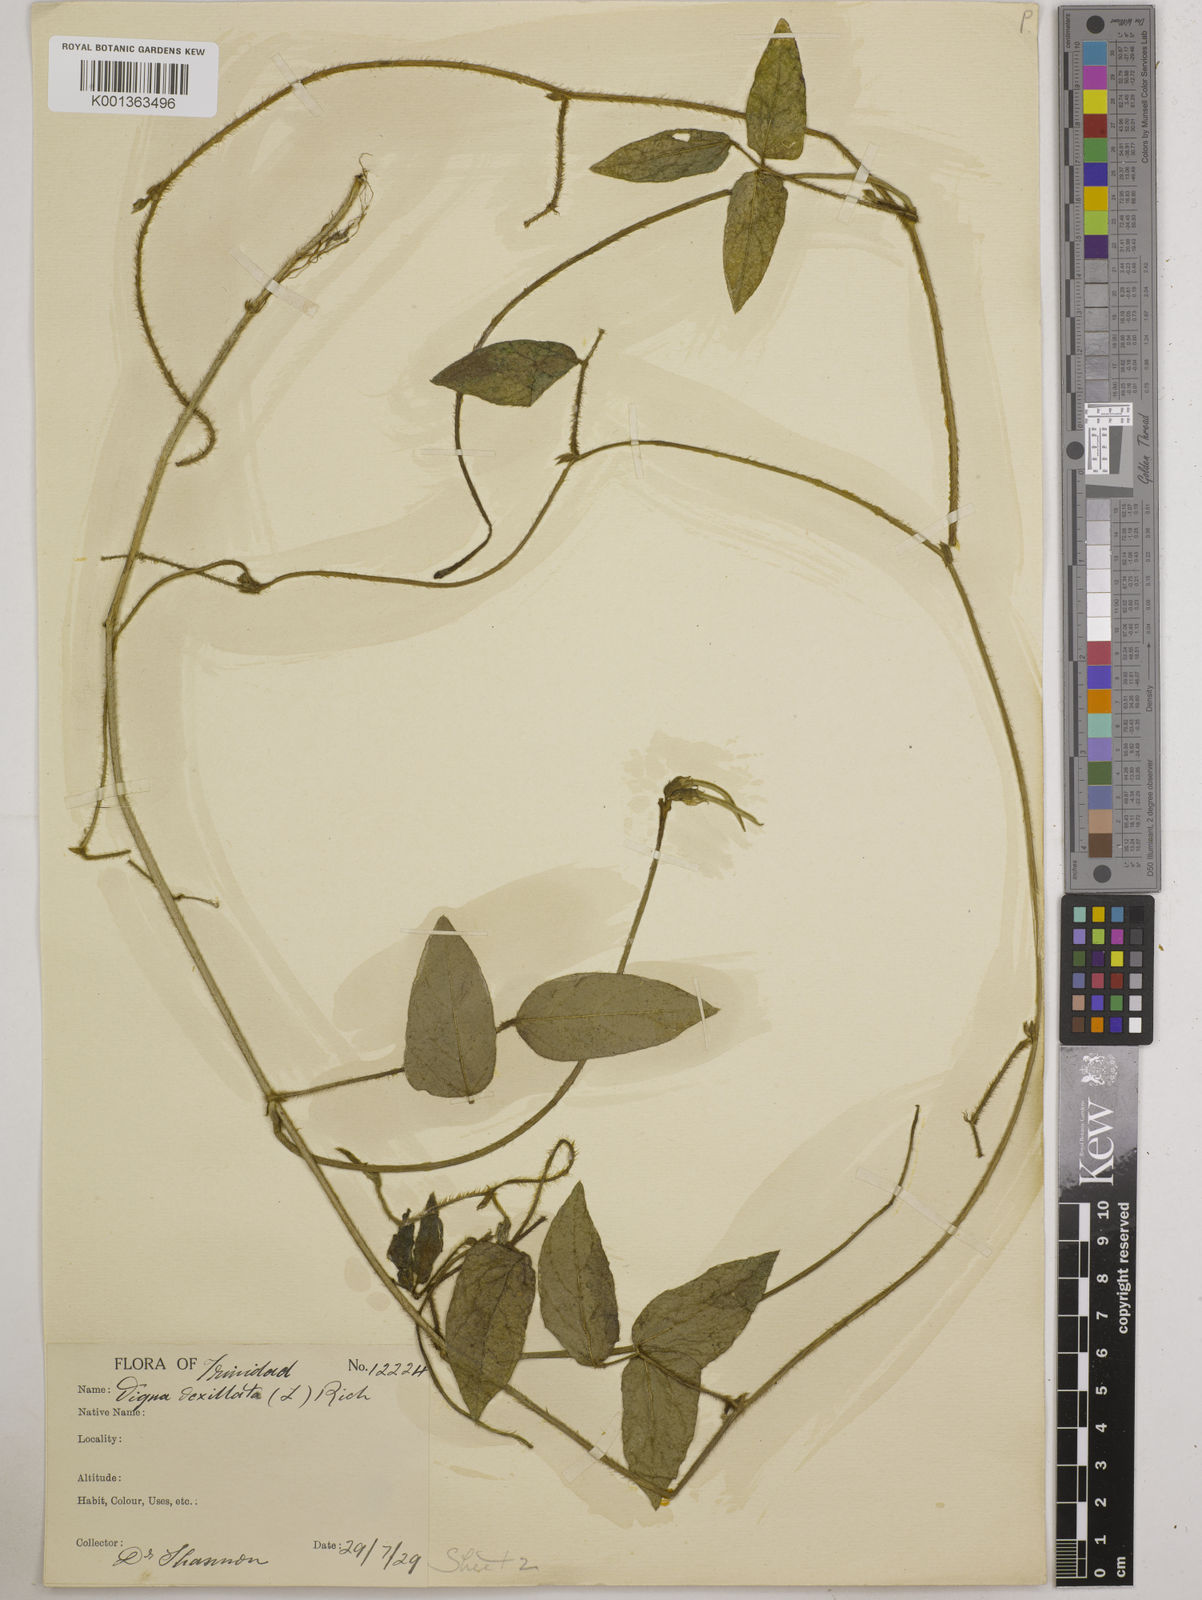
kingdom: Plantae
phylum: Tracheophyta
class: Magnoliopsida
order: Fabales
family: Fabaceae
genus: Vigna
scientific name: Vigna vexillata
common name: Zombi pea
